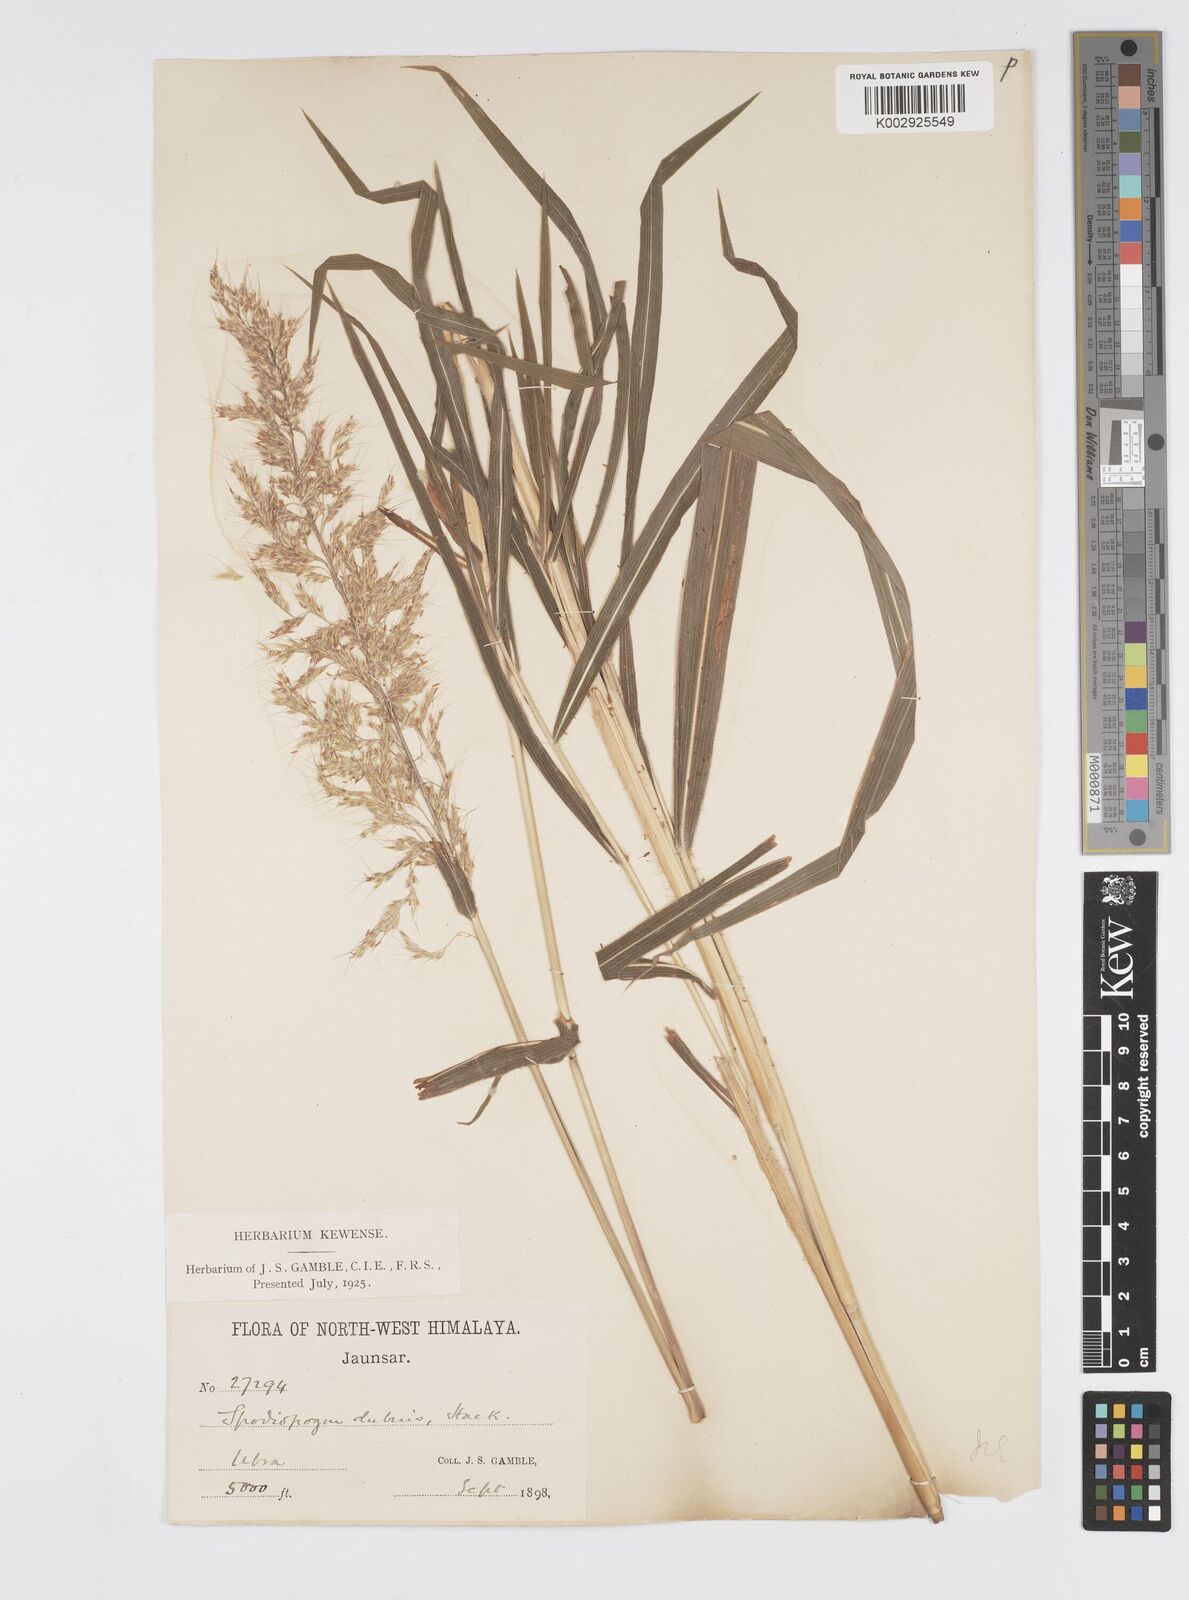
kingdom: Plantae
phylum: Tracheophyta
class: Liliopsida
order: Poales
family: Poaceae
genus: Spodiopogon
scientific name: Spodiopogon cotulifer
